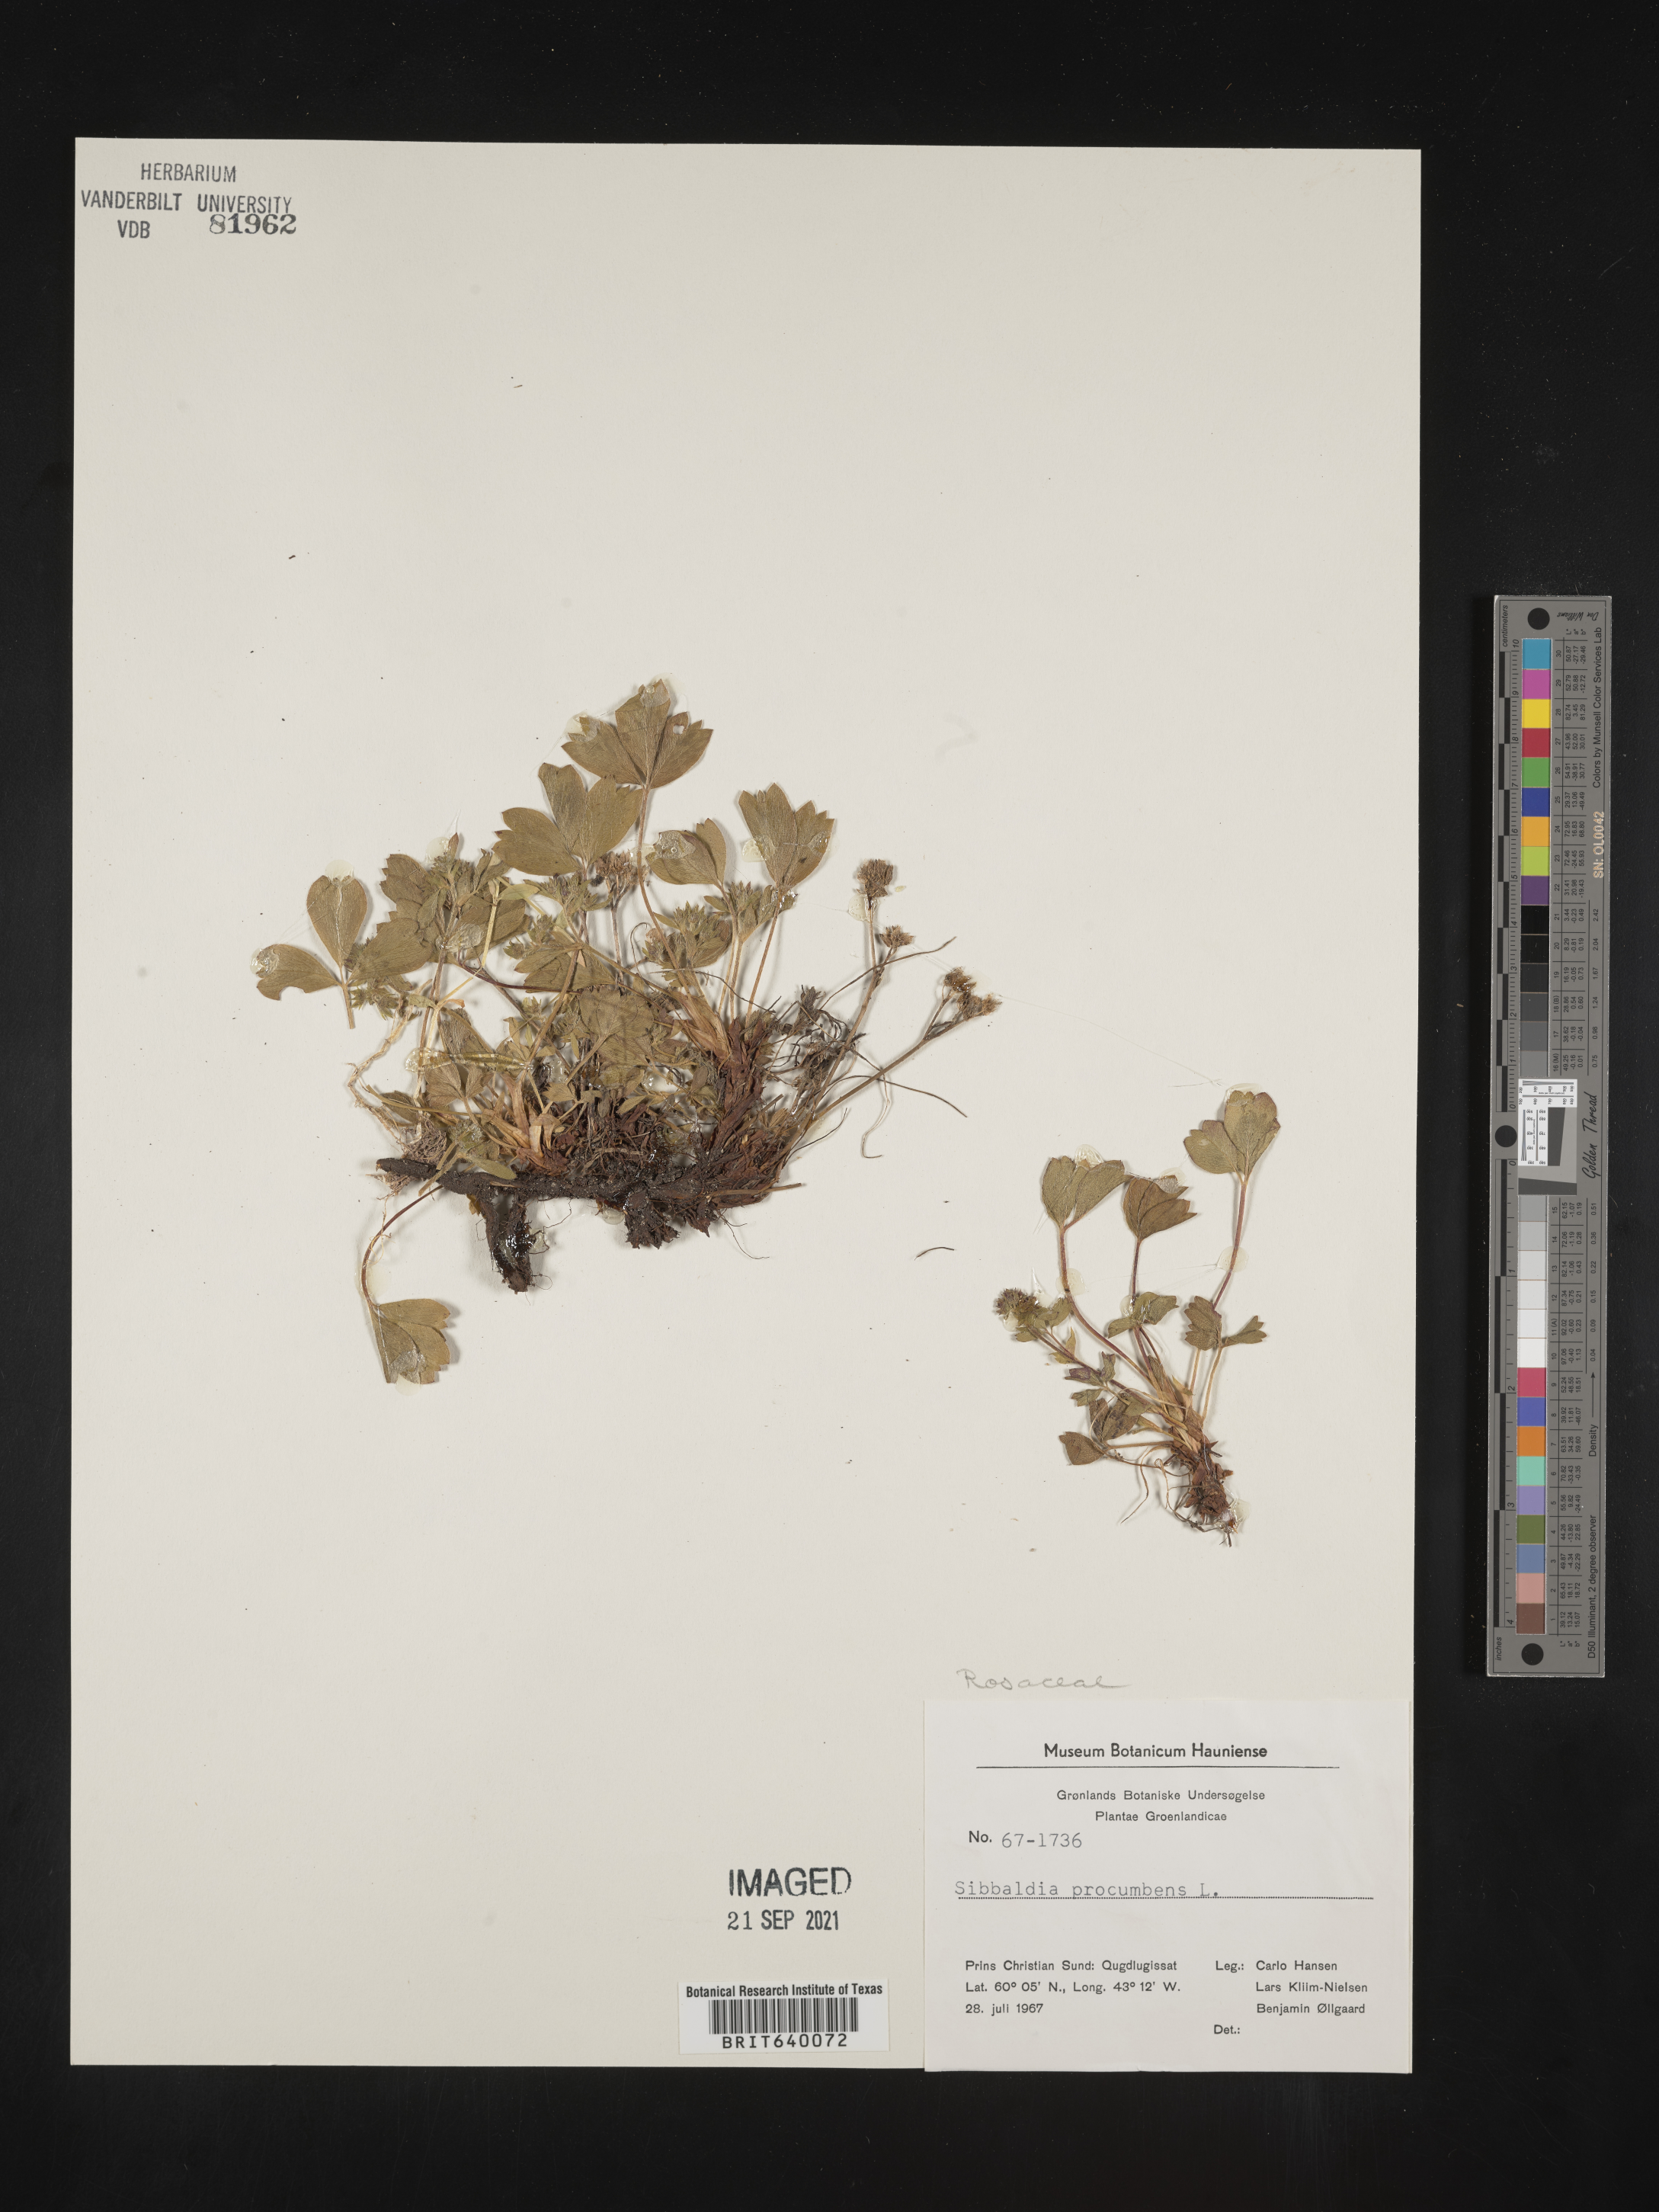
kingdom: Plantae
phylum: Tracheophyta
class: Magnoliopsida
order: Rosales
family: Rosaceae
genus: Sibbaldia
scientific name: Sibbaldia
